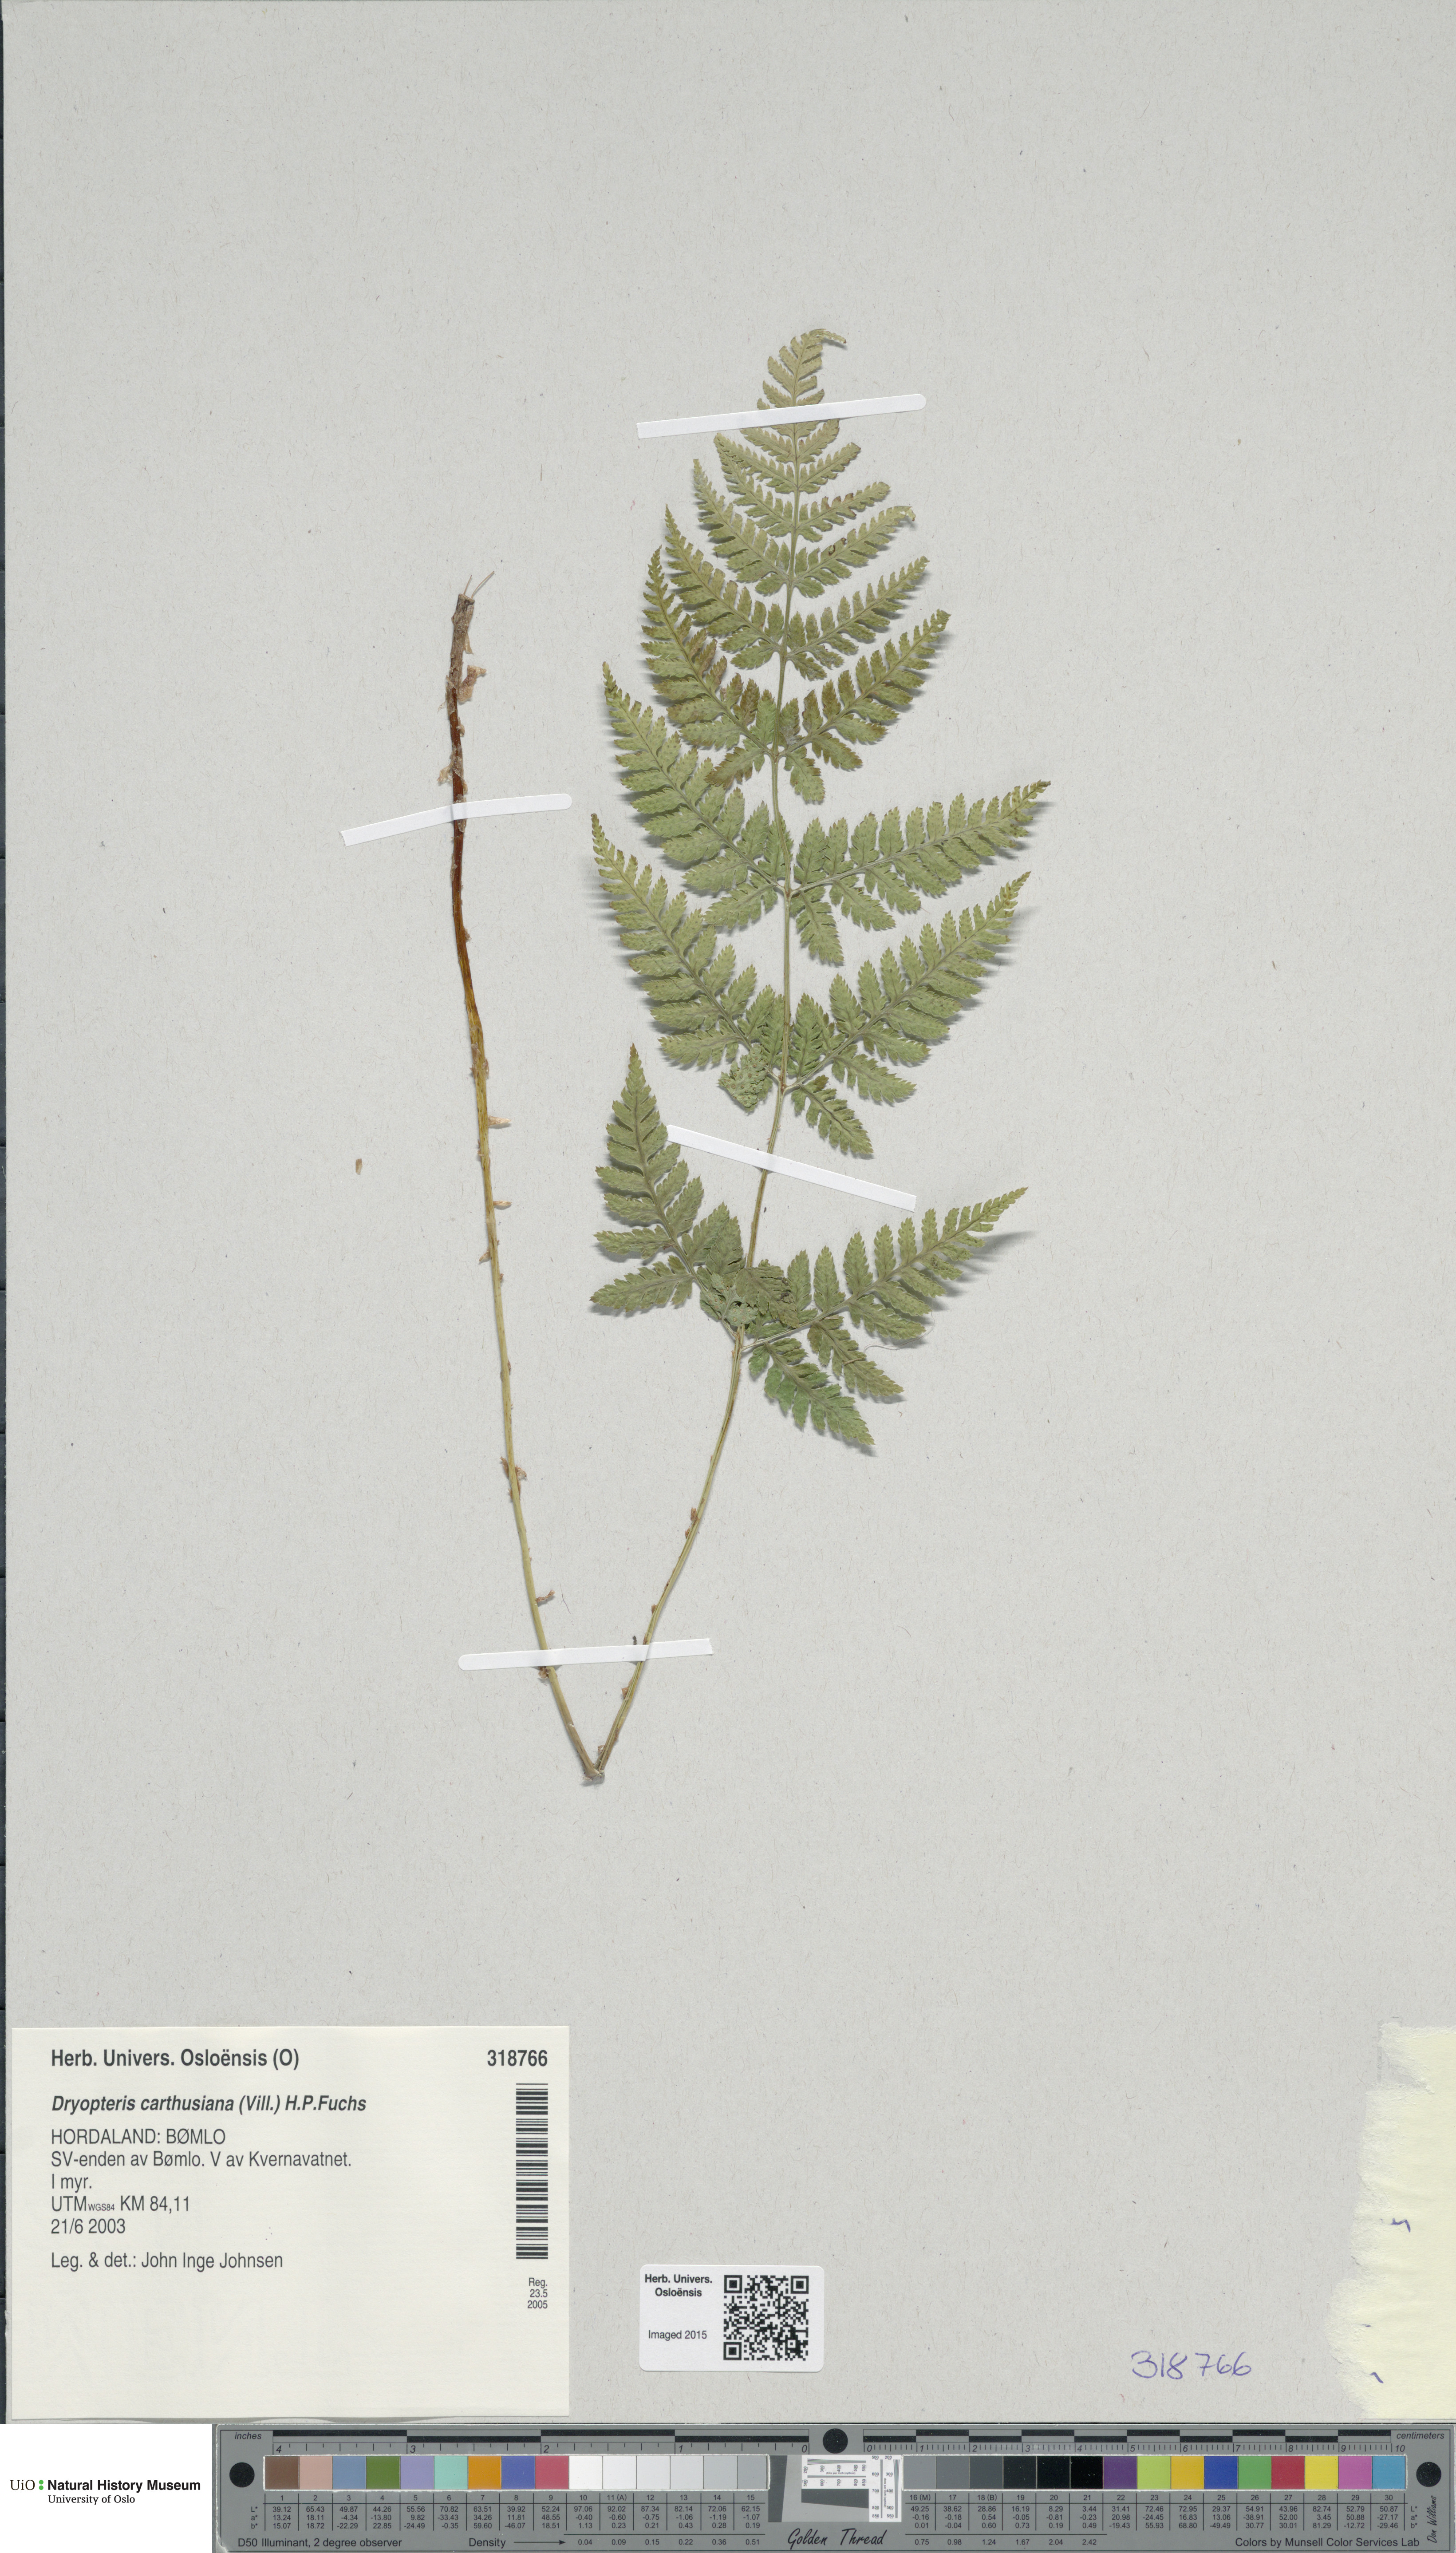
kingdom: Plantae
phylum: Tracheophyta
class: Polypodiopsida
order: Polypodiales
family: Dryopteridaceae
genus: Dryopteris
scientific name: Dryopteris carthusiana
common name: Narrow buckler-fern
